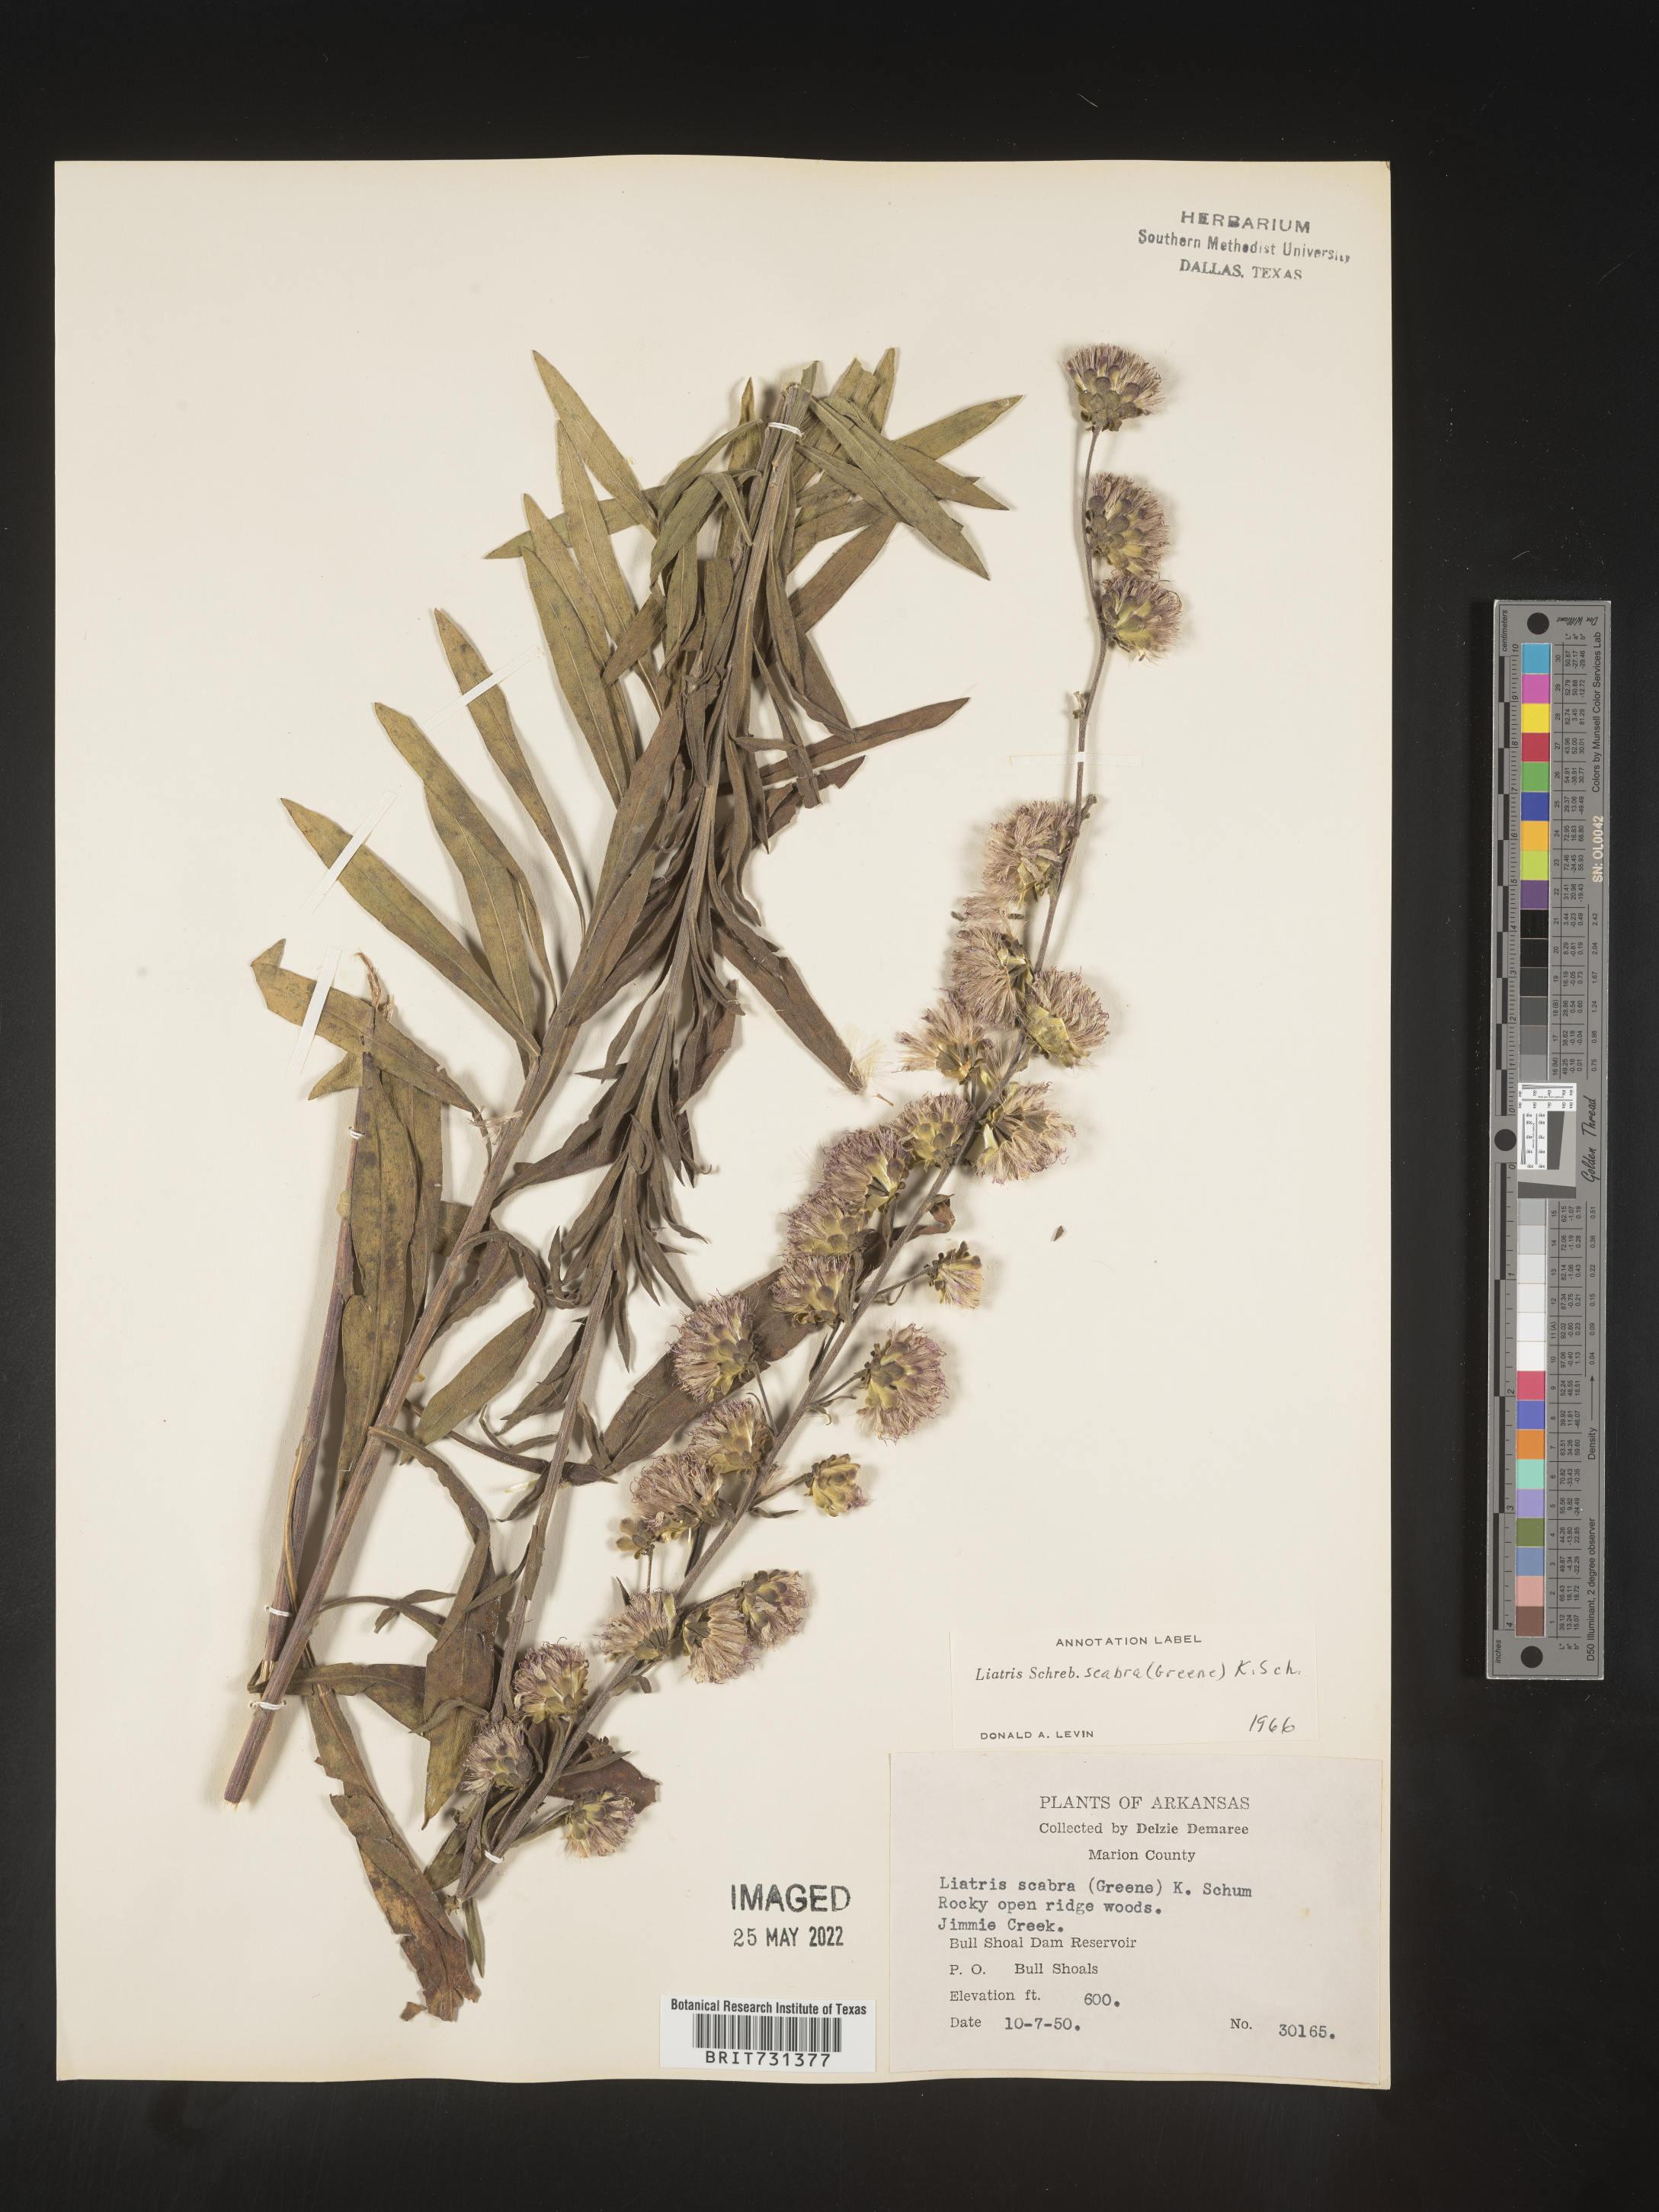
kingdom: Plantae
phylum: Tracheophyta
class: Magnoliopsida
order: Asterales
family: Asteraceae
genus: Liatris
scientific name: Liatris squarrulosa
